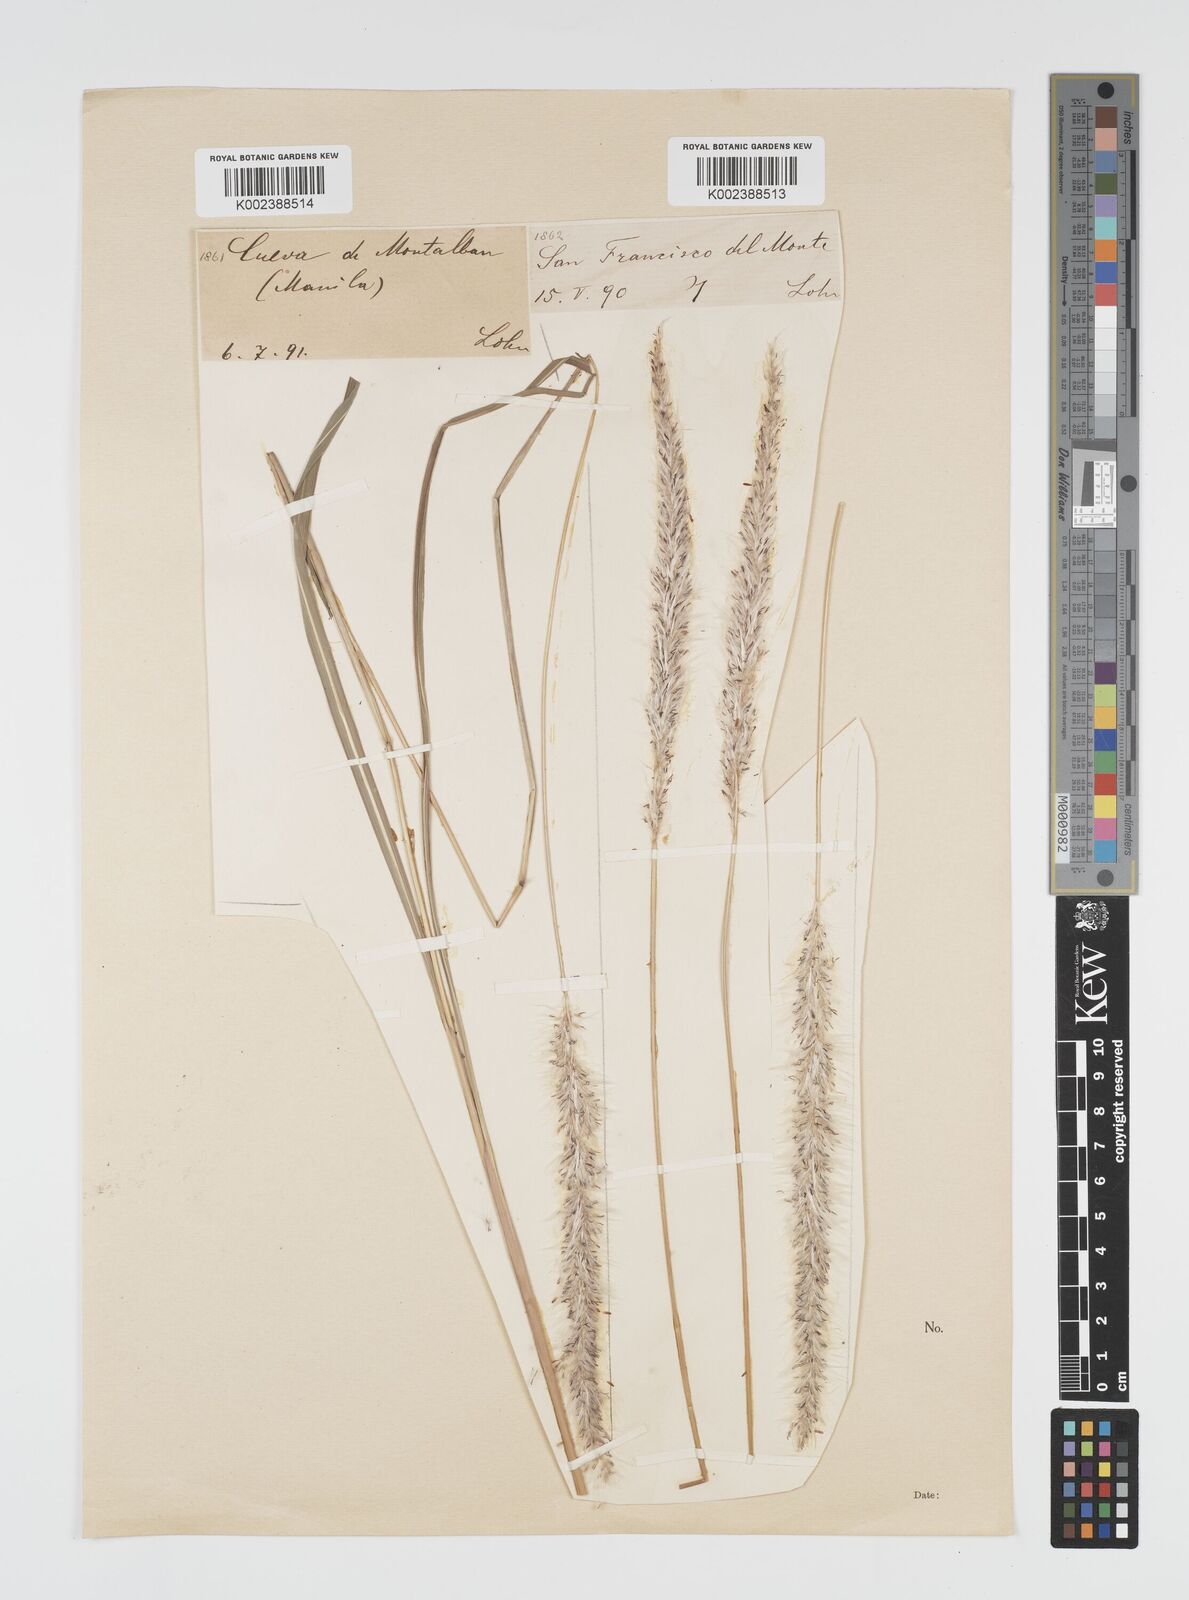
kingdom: Plantae
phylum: Tracheophyta
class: Liliopsida
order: Poales
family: Poaceae
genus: Imperata
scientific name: Imperata cylindrica
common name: Cogongrass
